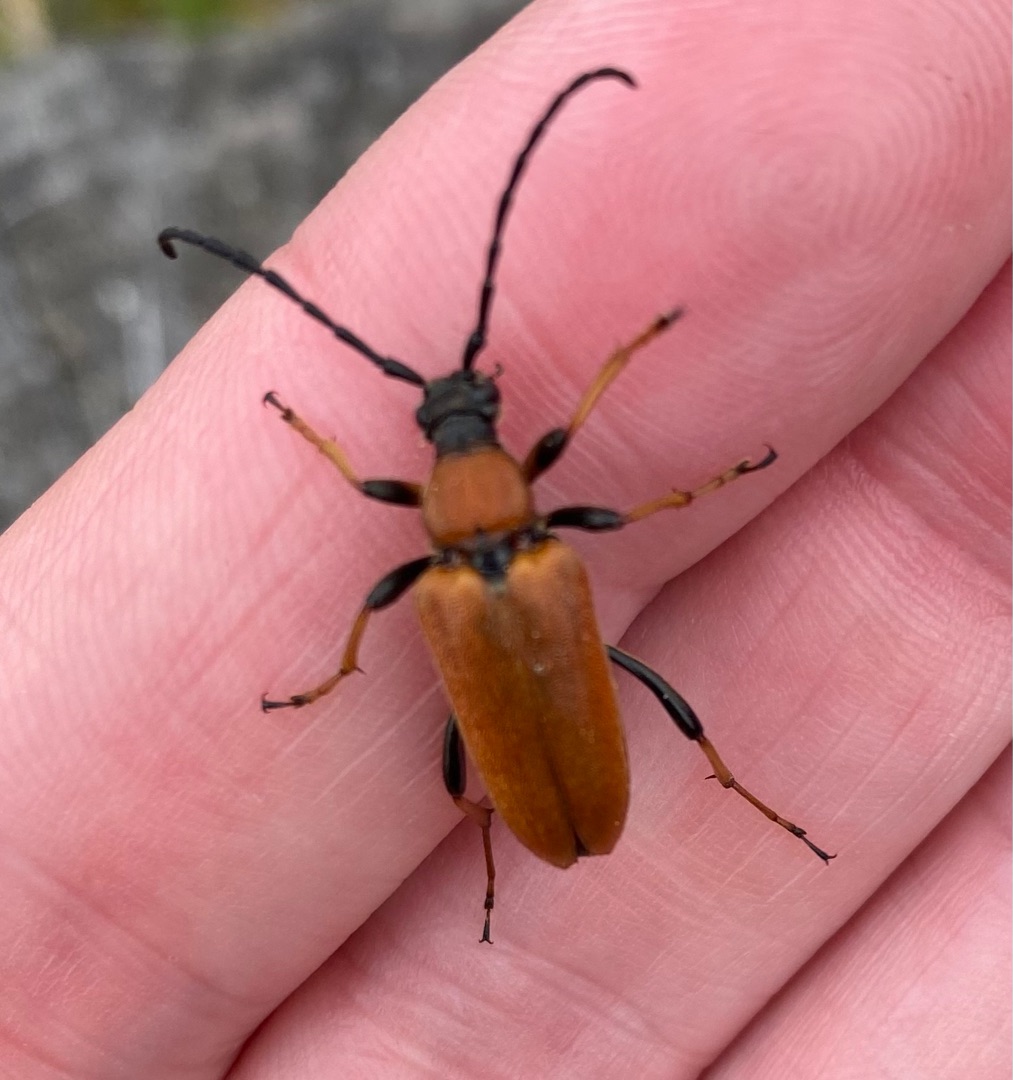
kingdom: Animalia
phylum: Arthropoda
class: Insecta
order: Coleoptera
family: Cerambycidae
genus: Stictoleptura
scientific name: Stictoleptura rubra
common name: Rød blomsterbuk
